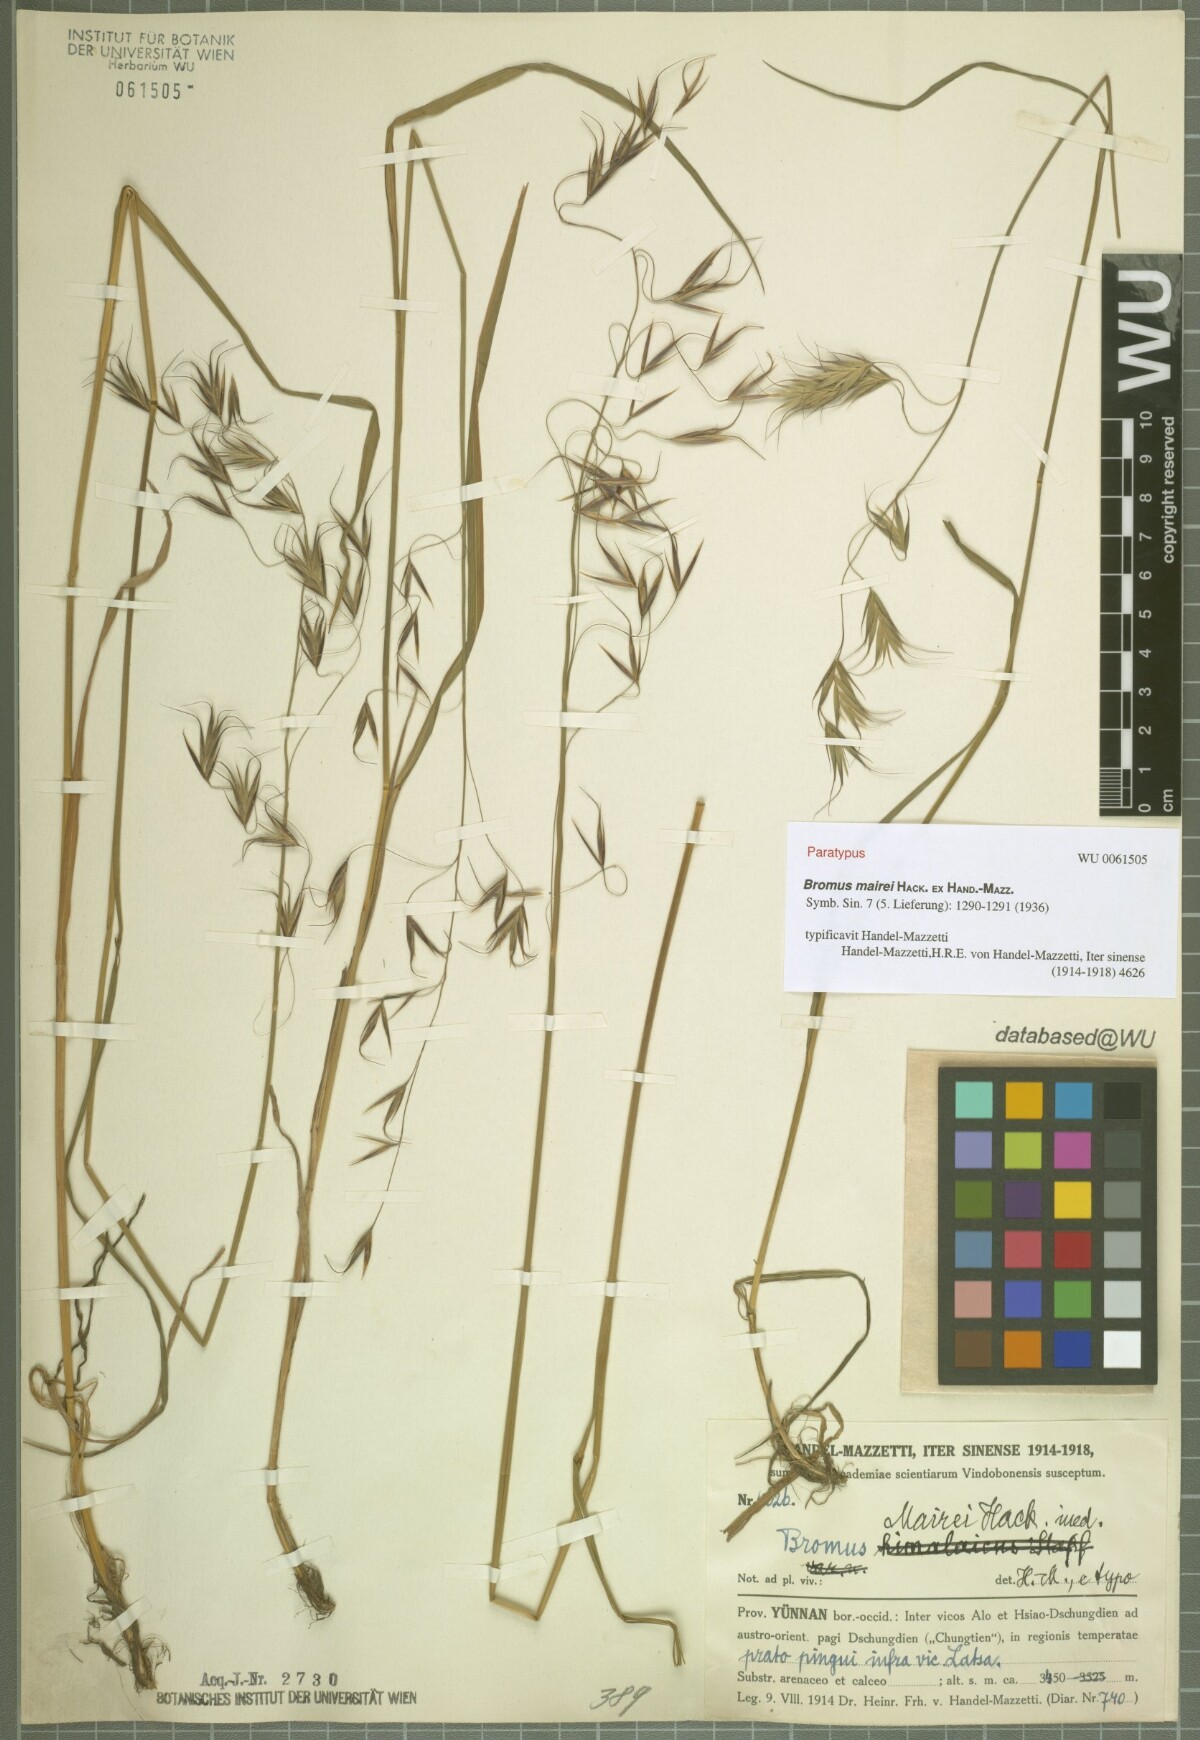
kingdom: Plantae
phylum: Tracheophyta
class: Liliopsida
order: Poales
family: Poaceae
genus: Bromus
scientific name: Bromus mairei
